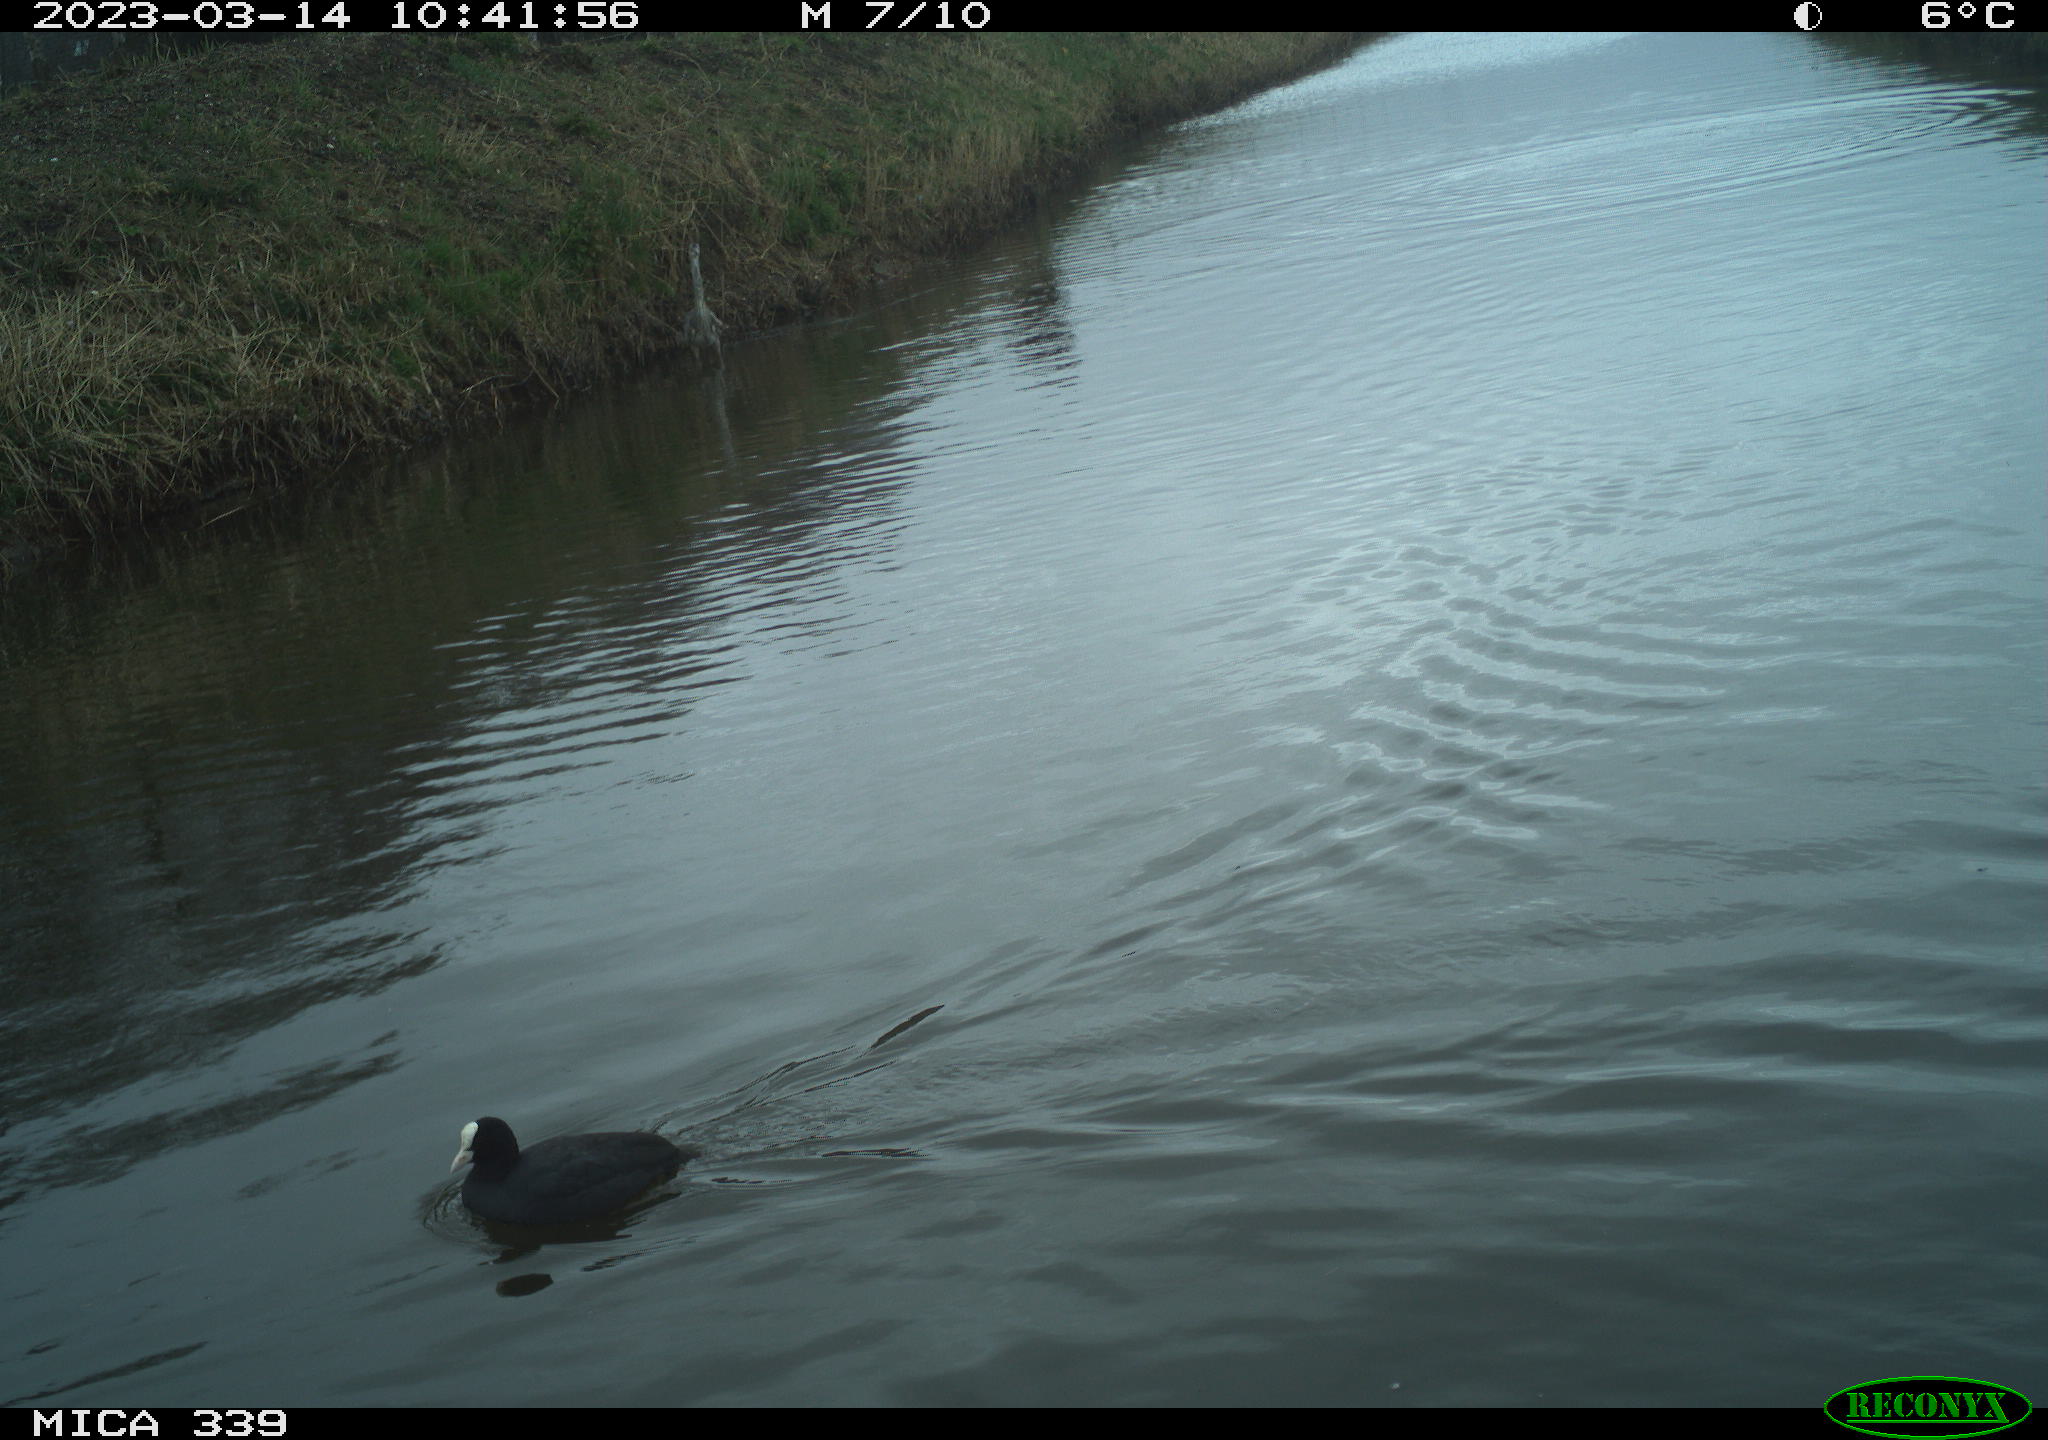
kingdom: Animalia
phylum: Chordata
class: Aves
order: Gruiformes
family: Rallidae
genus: Fulica
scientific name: Fulica atra
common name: Eurasian coot
